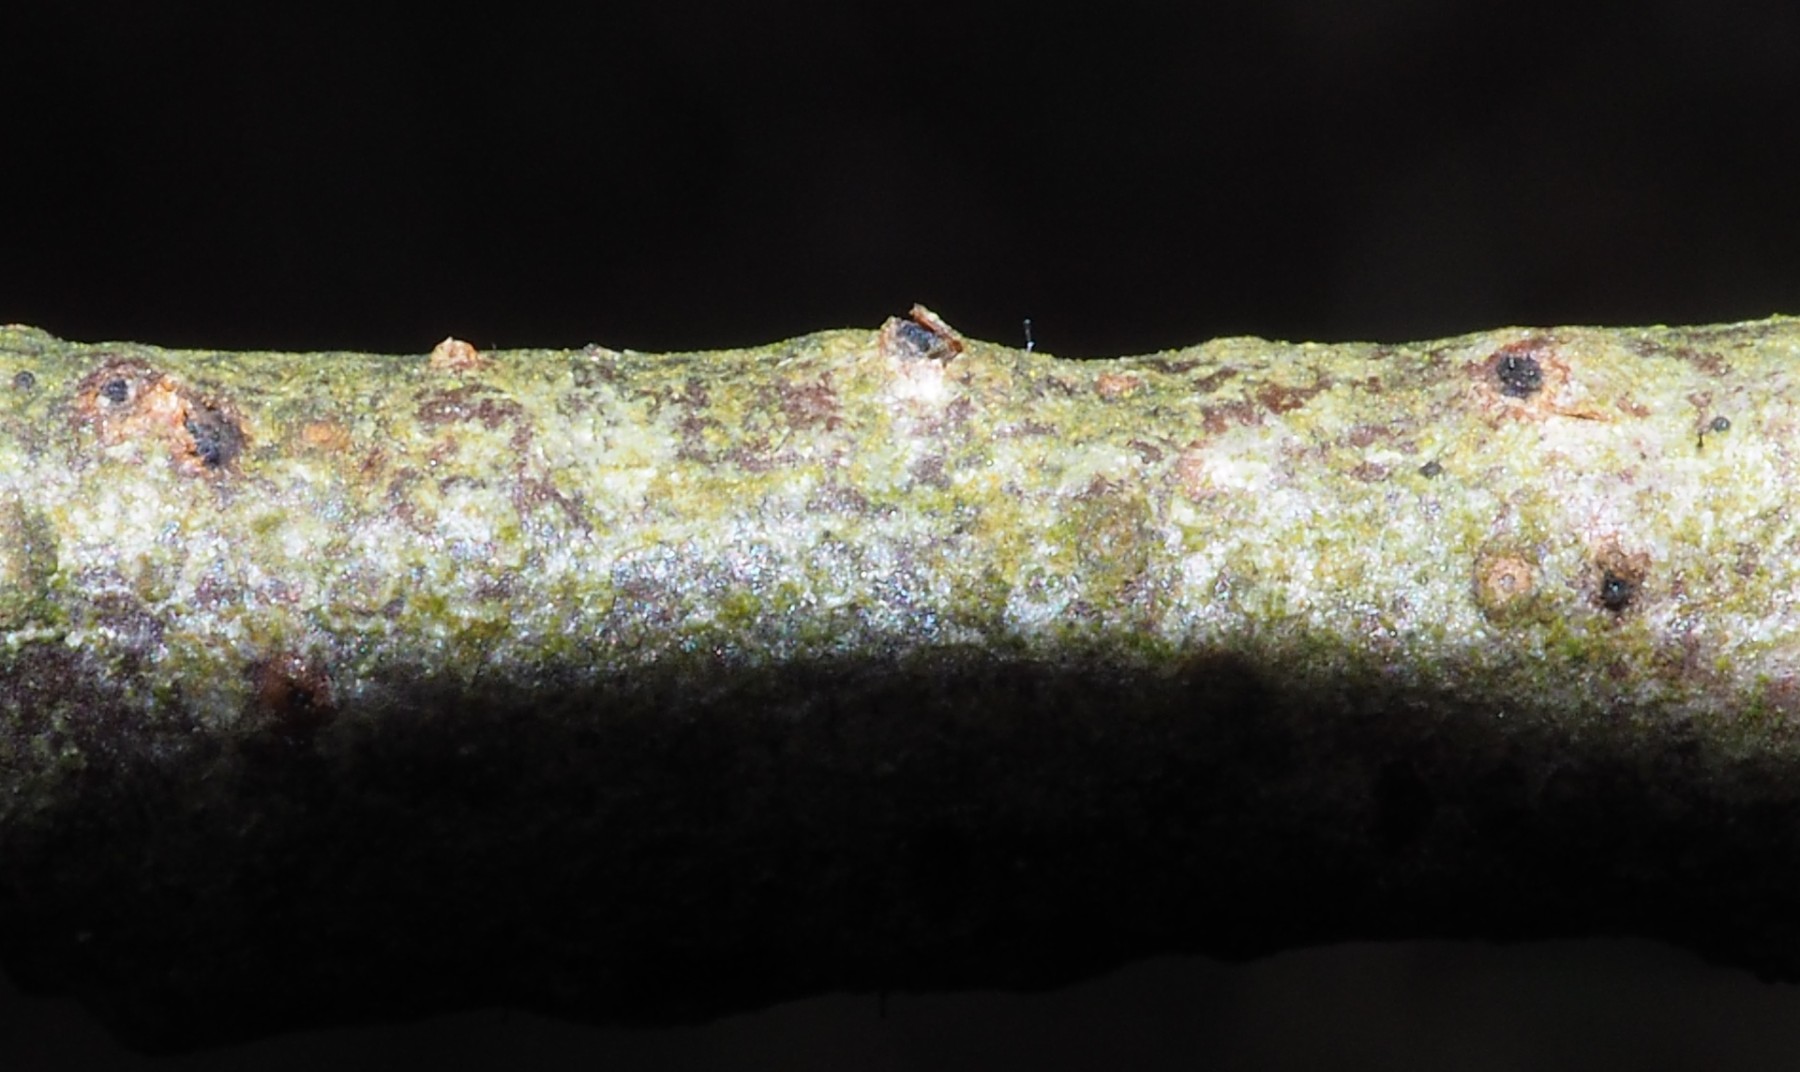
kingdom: Fungi
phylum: Ascomycota
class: Eurotiomycetes
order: Mycocaliciales
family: Mycocaliciaceae
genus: Stenocybe
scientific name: Stenocybe pullatula
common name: elle-nålesvamp
